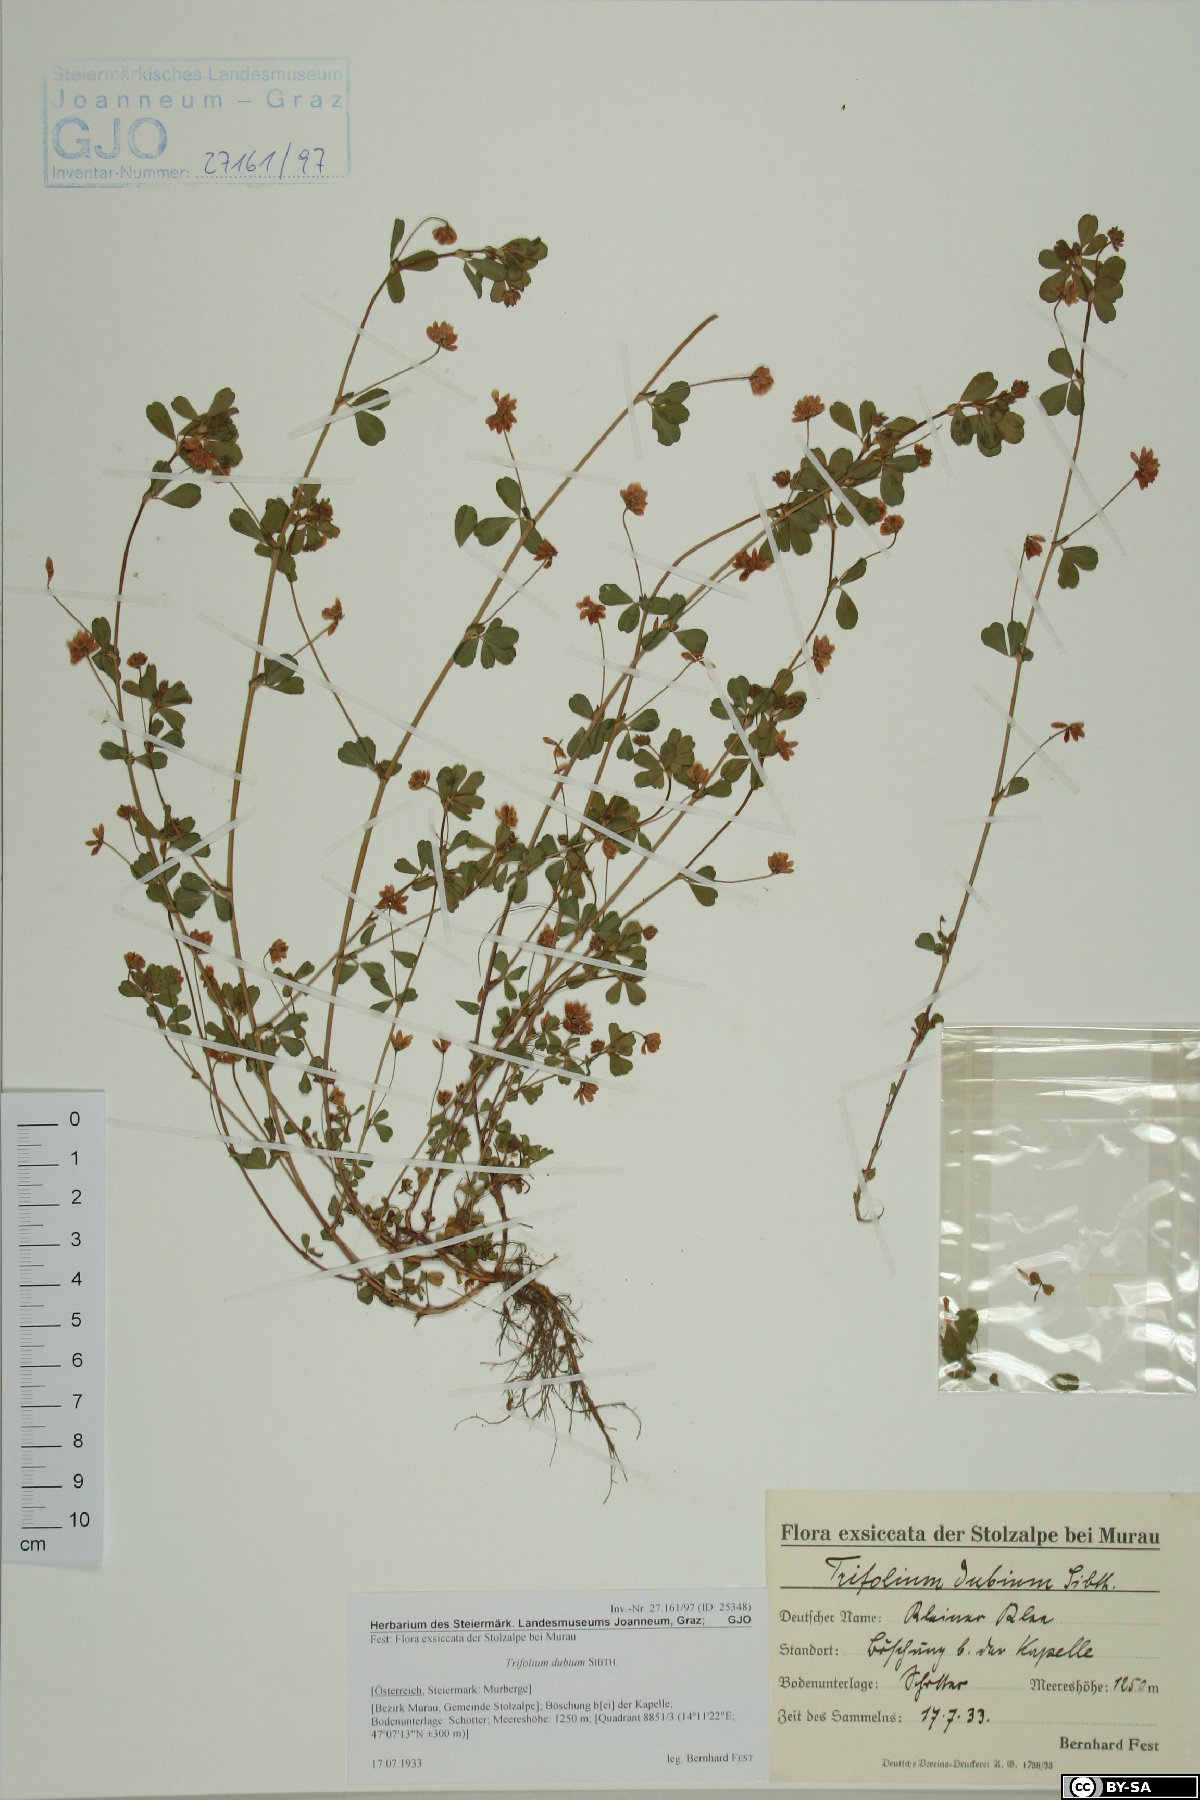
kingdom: Plantae
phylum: Tracheophyta
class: Magnoliopsida
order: Fabales
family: Fabaceae
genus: Trifolium
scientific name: Trifolium dubium
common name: Suckling clover
